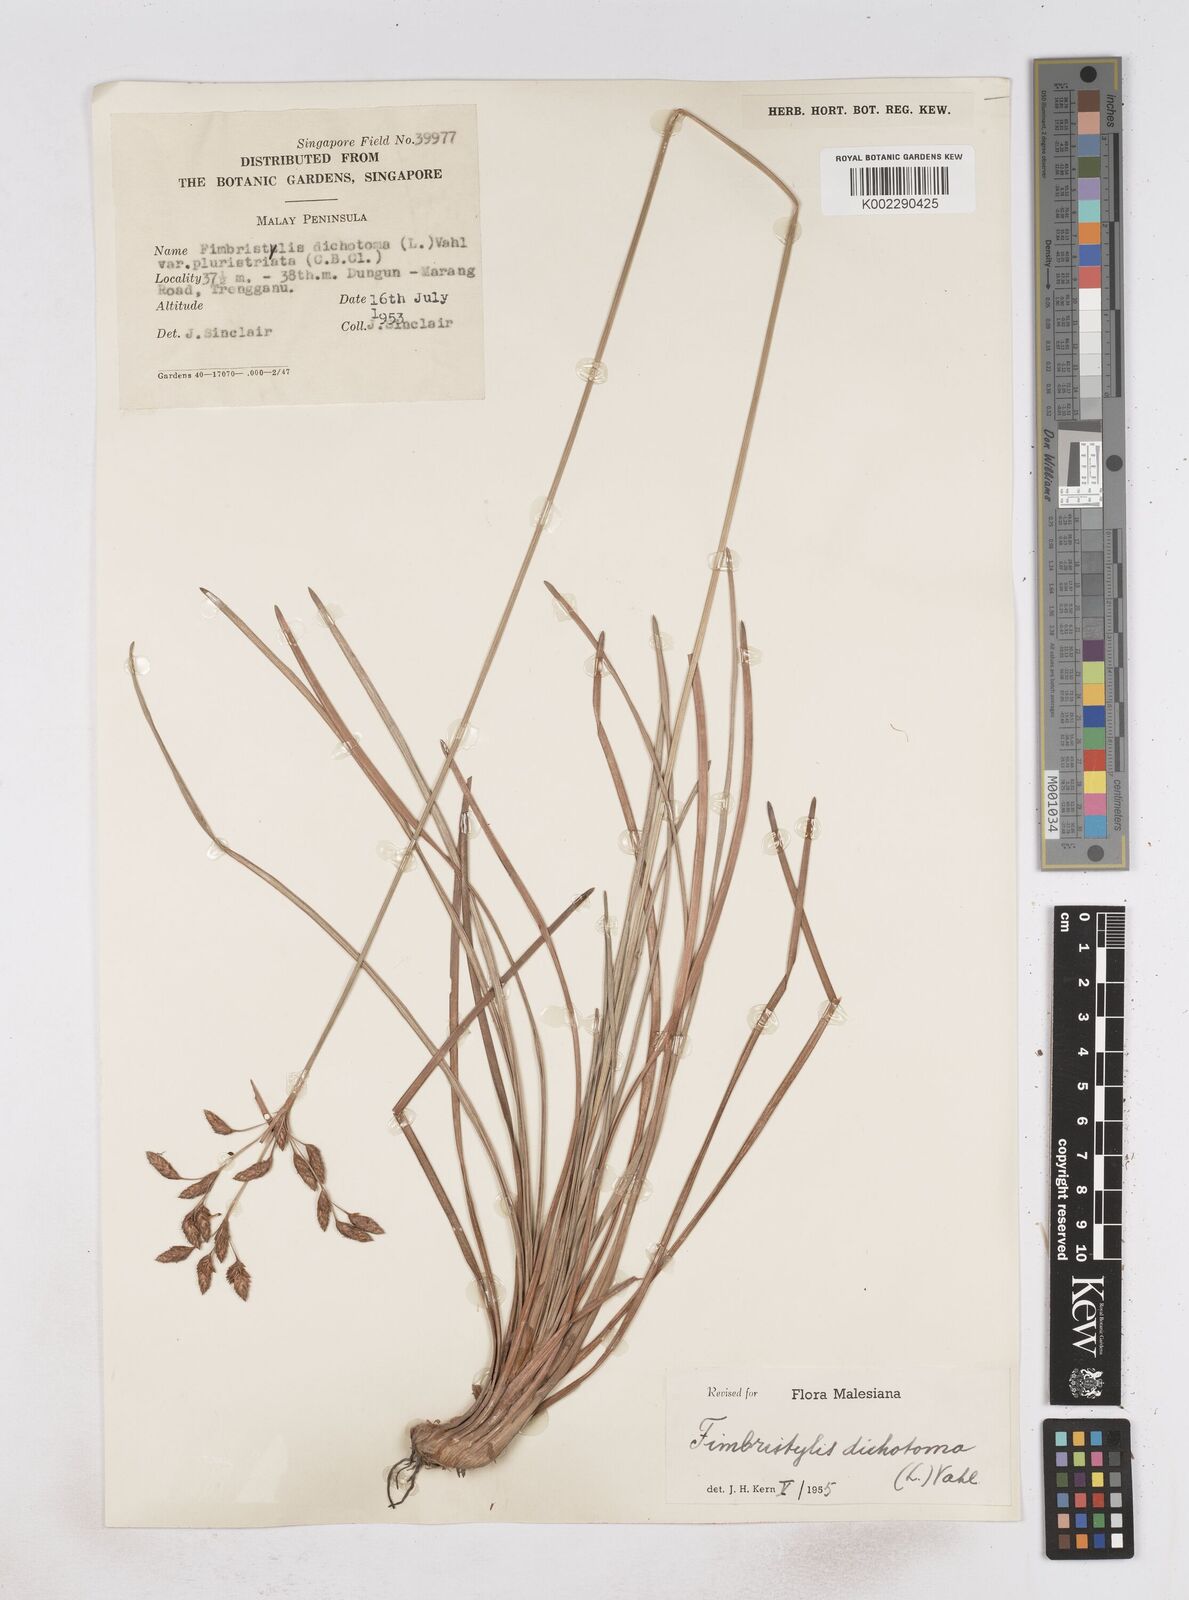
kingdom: Plantae
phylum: Tracheophyta
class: Liliopsida
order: Poales
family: Cyperaceae
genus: Fimbristylis
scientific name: Fimbristylis dichotoma
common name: Forked fimbry
